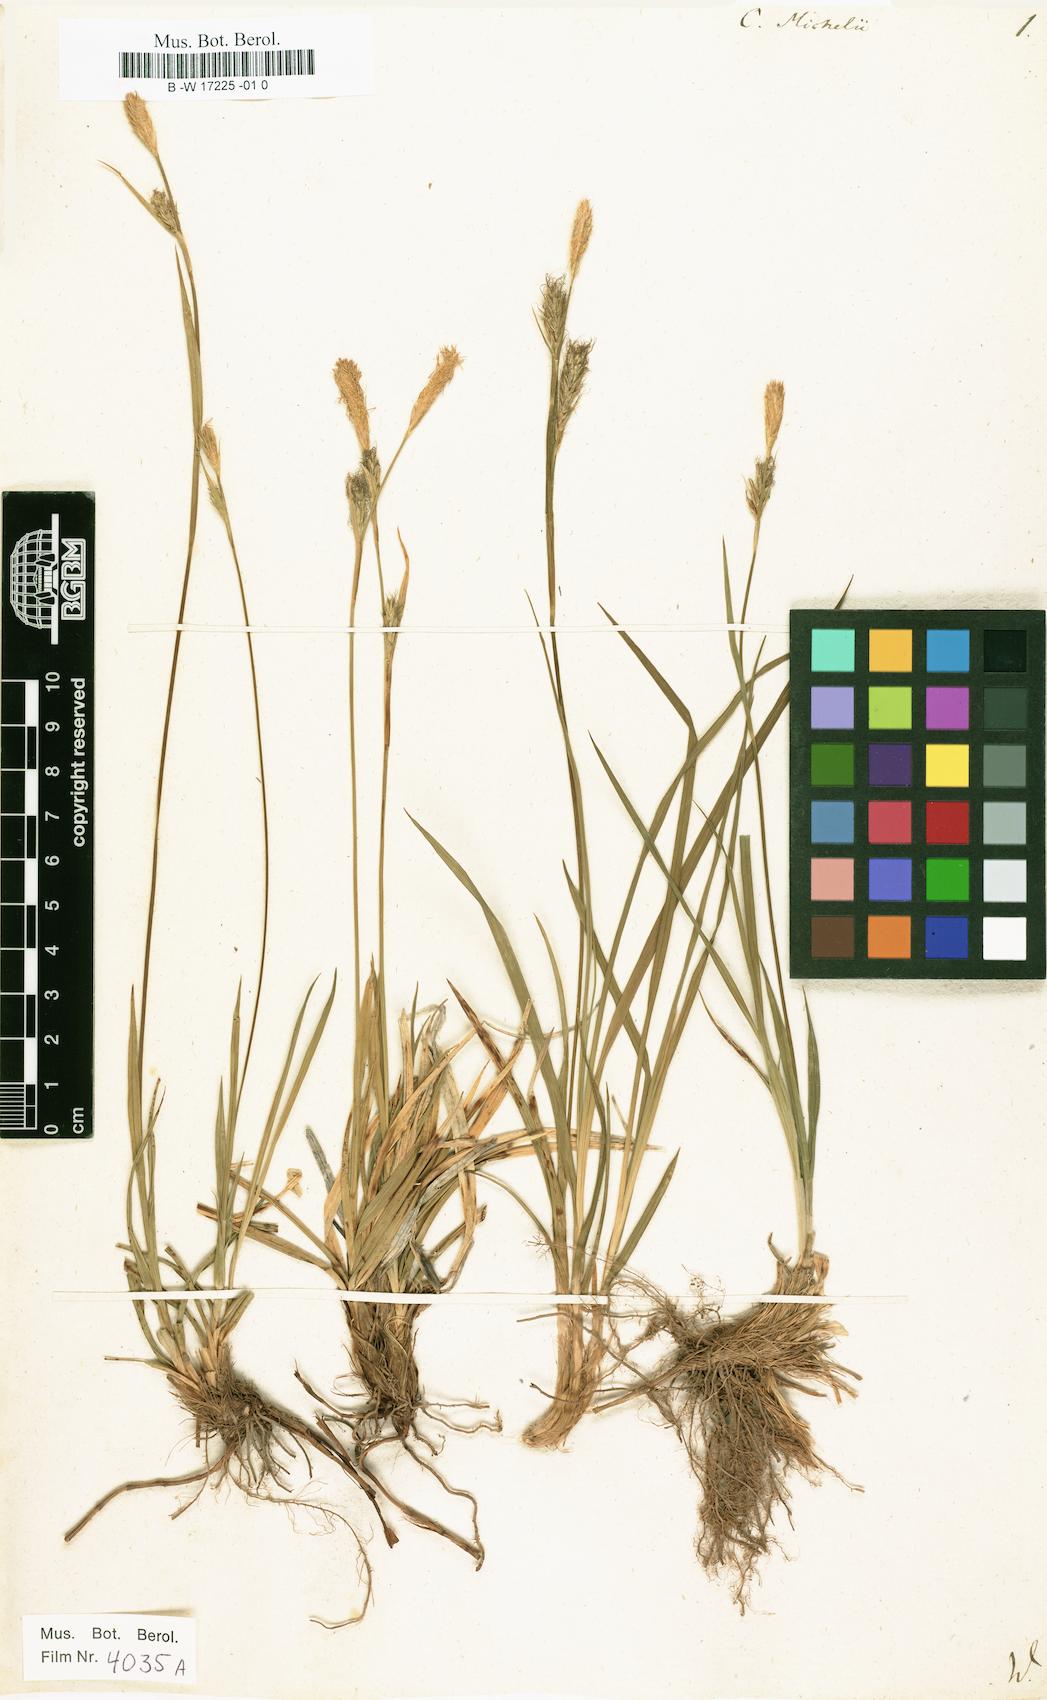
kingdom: Plantae
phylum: Tracheophyta
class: Liliopsida
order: Poales
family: Cyperaceae
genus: Carex
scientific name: Carex michelii
